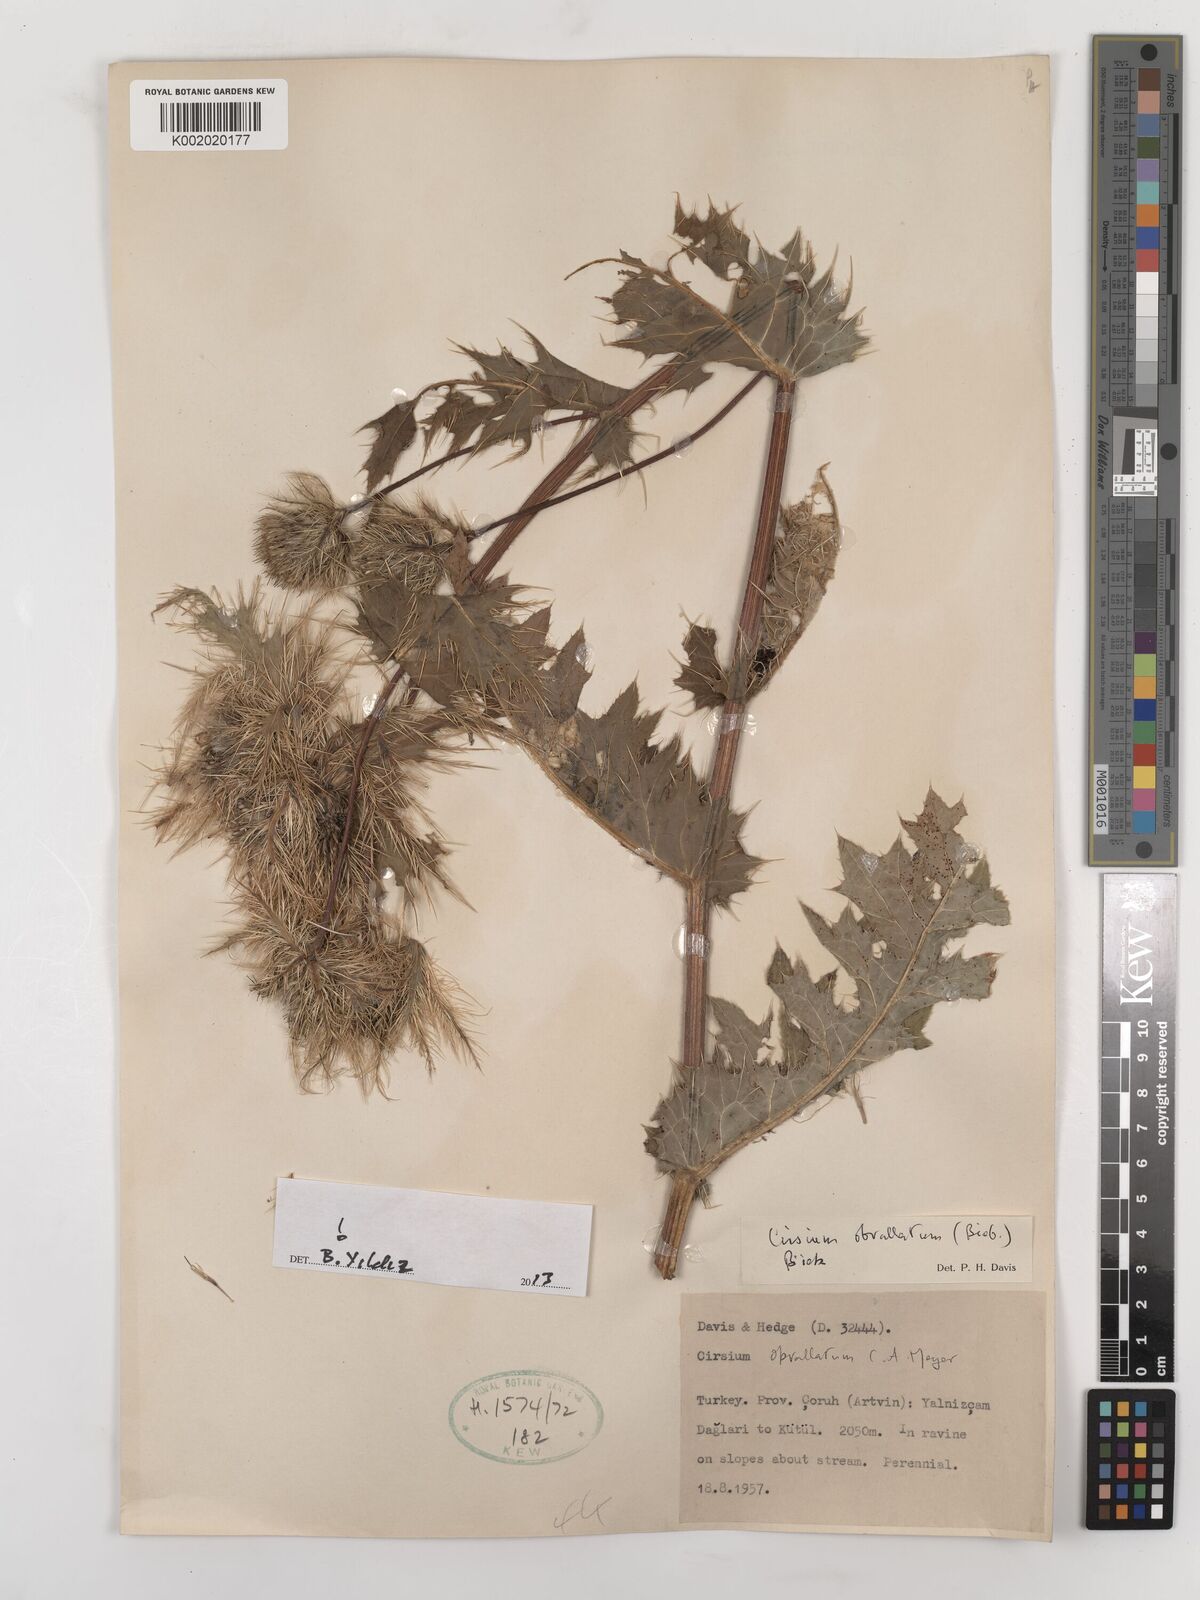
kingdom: Plantae
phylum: Tracheophyta
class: Magnoliopsida
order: Asterales
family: Asteraceae
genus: Cirsium
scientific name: Cirsium obvallatum
